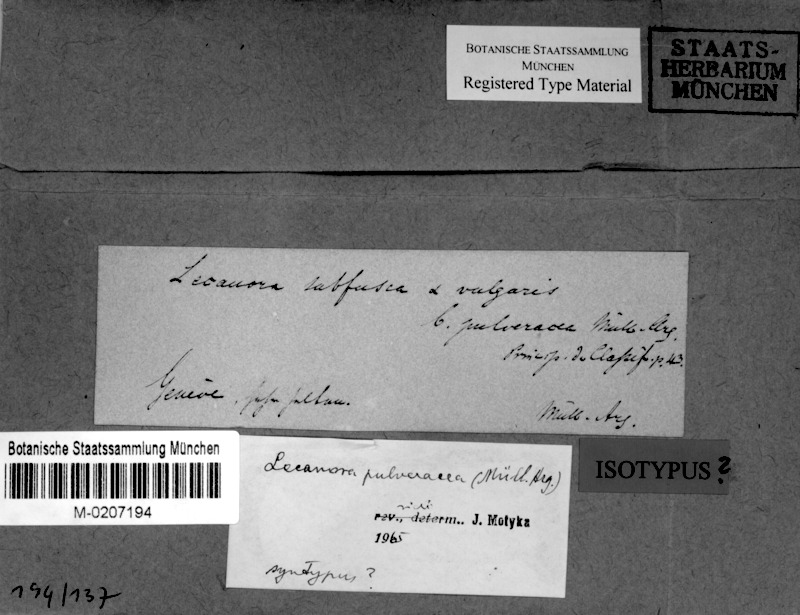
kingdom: Fungi
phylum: Ascomycota
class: Lecanoromycetes
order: Lecanorales
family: Lecanoraceae
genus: Lecanora
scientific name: Lecanora subfusca
